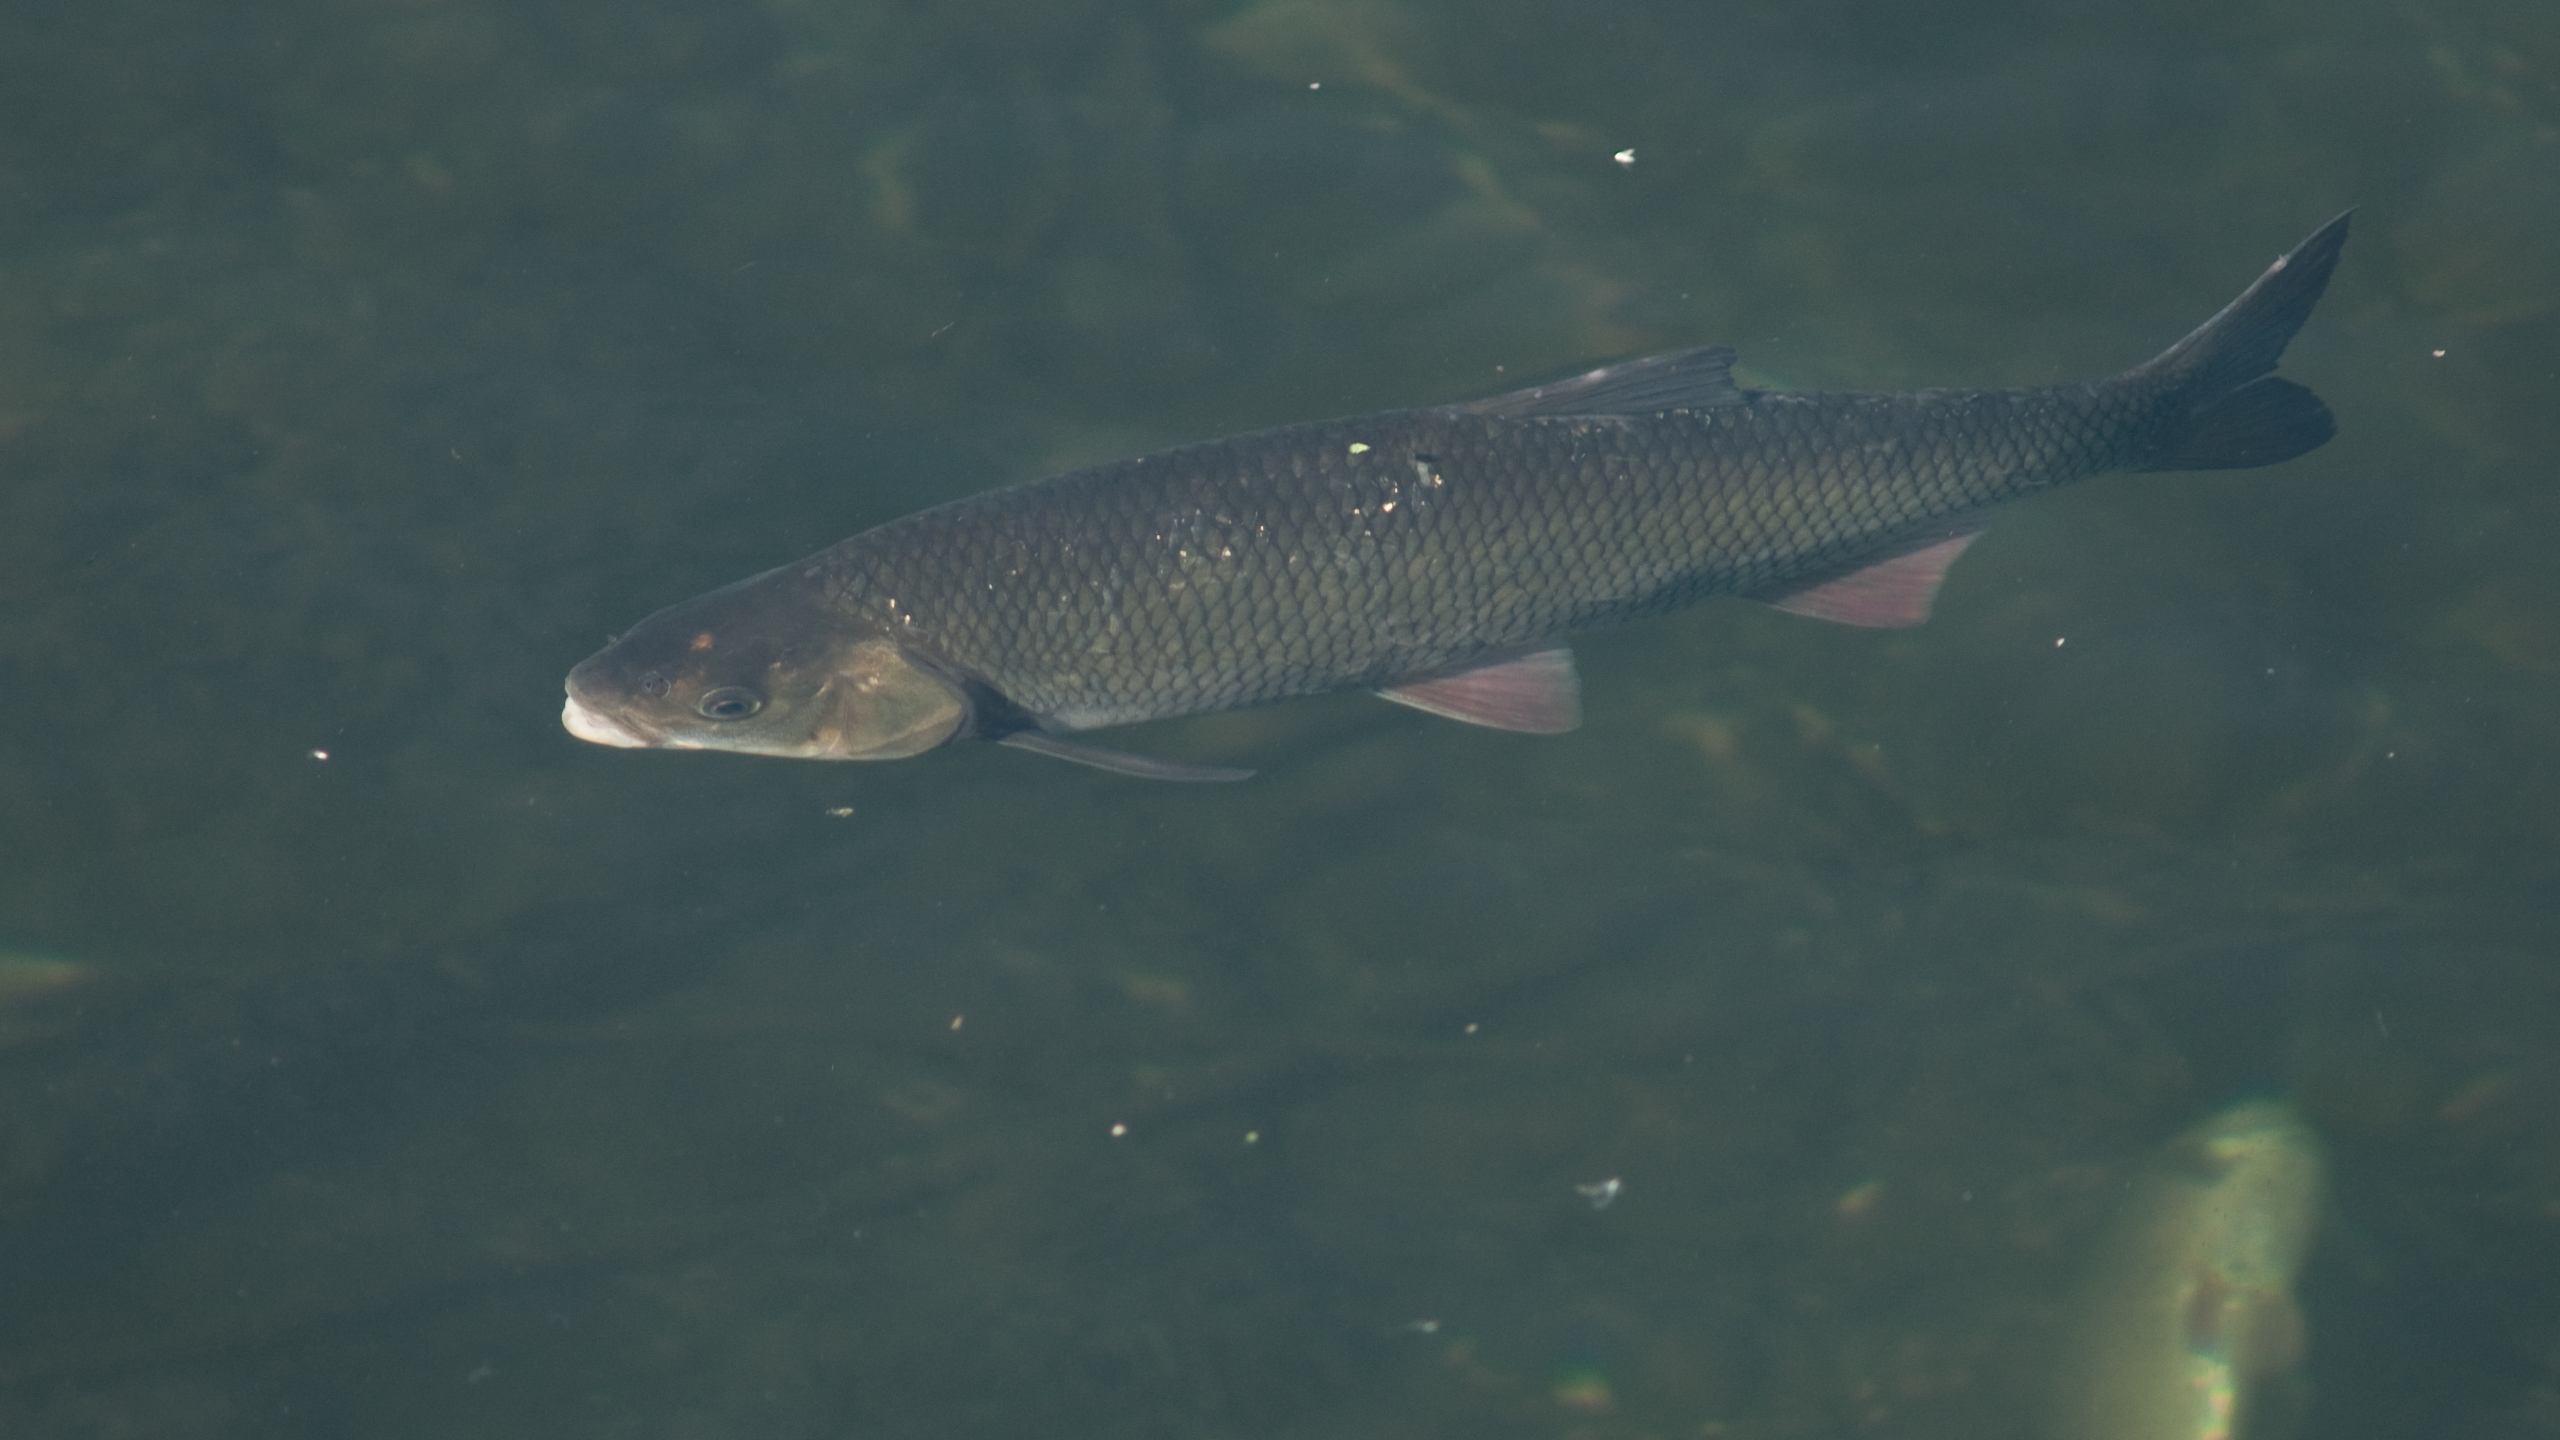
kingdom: Animalia
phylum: Chordata
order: Cypriniformes
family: Cyprinidae
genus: Leuciscus
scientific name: Leuciscus idus
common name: Rimte
